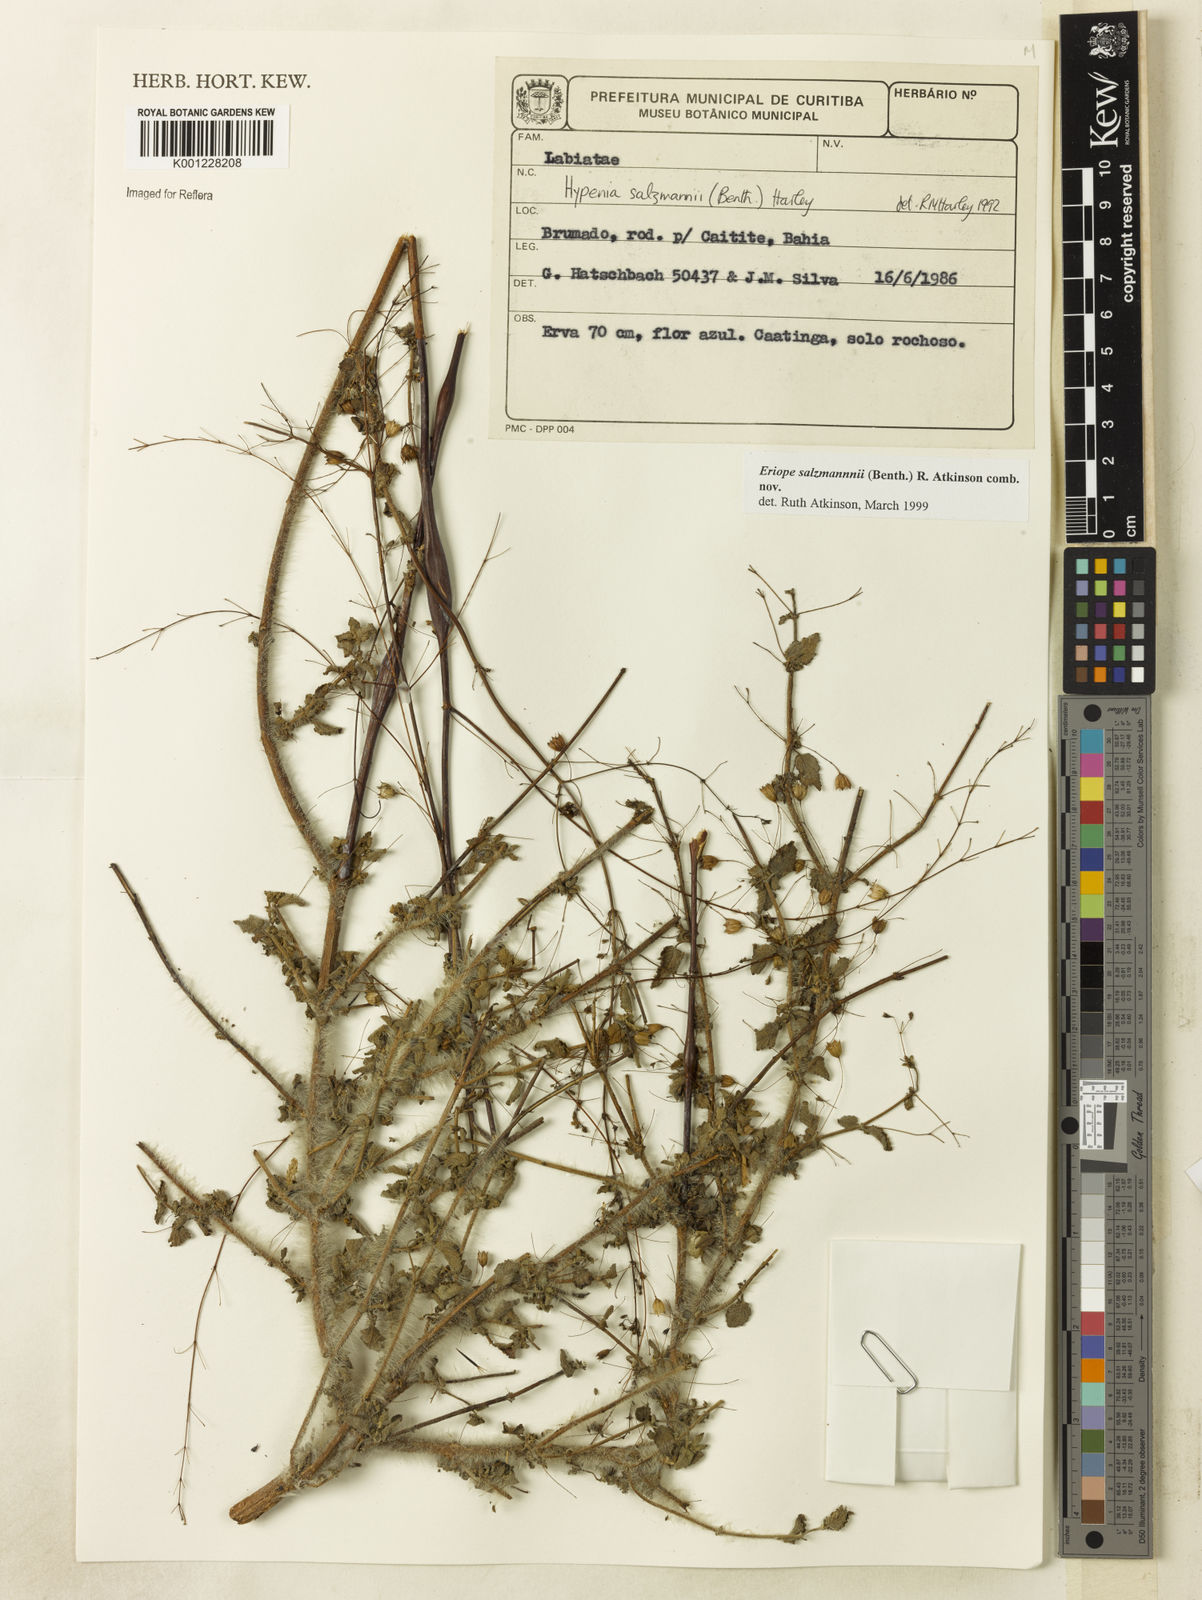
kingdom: Plantae
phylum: Tracheophyta
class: Magnoliopsida
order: Lamiales
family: Lamiaceae
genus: Hypenia
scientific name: Hypenia salzmannii
